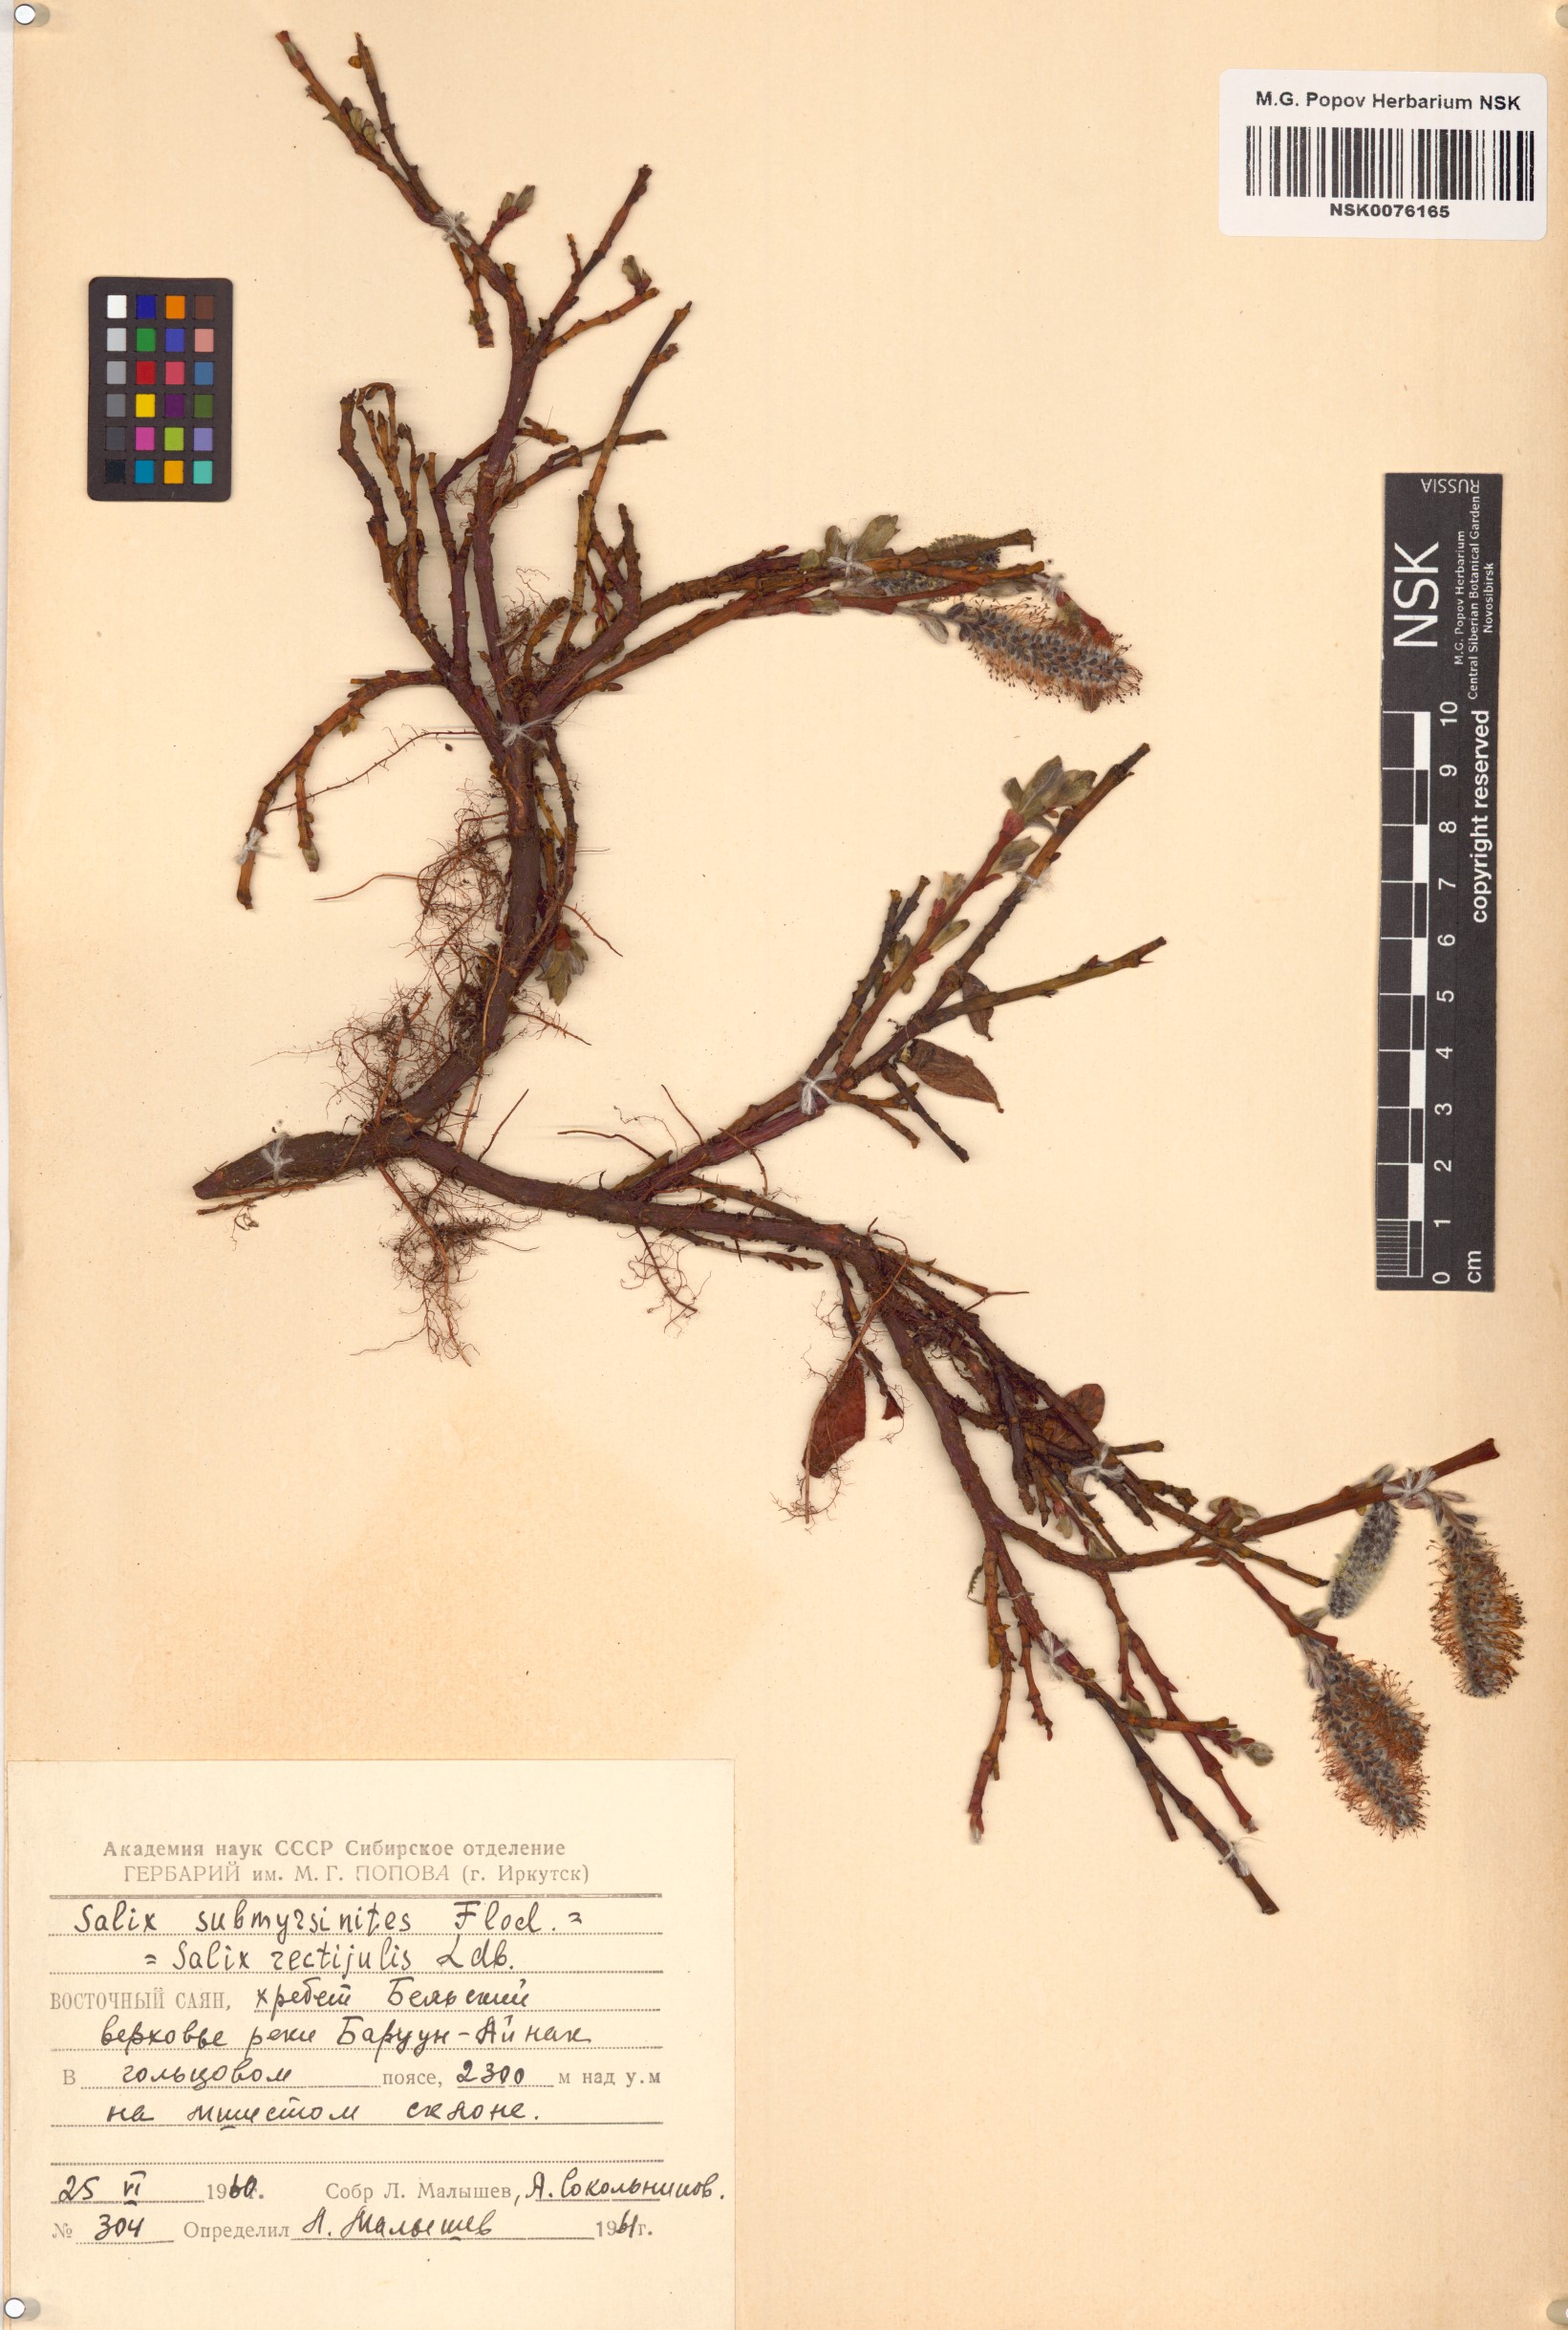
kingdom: Plantae
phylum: Tracheophyta
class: Magnoliopsida
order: Malpighiales
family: Salicaceae
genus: Salix
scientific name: Salix rectijulis
